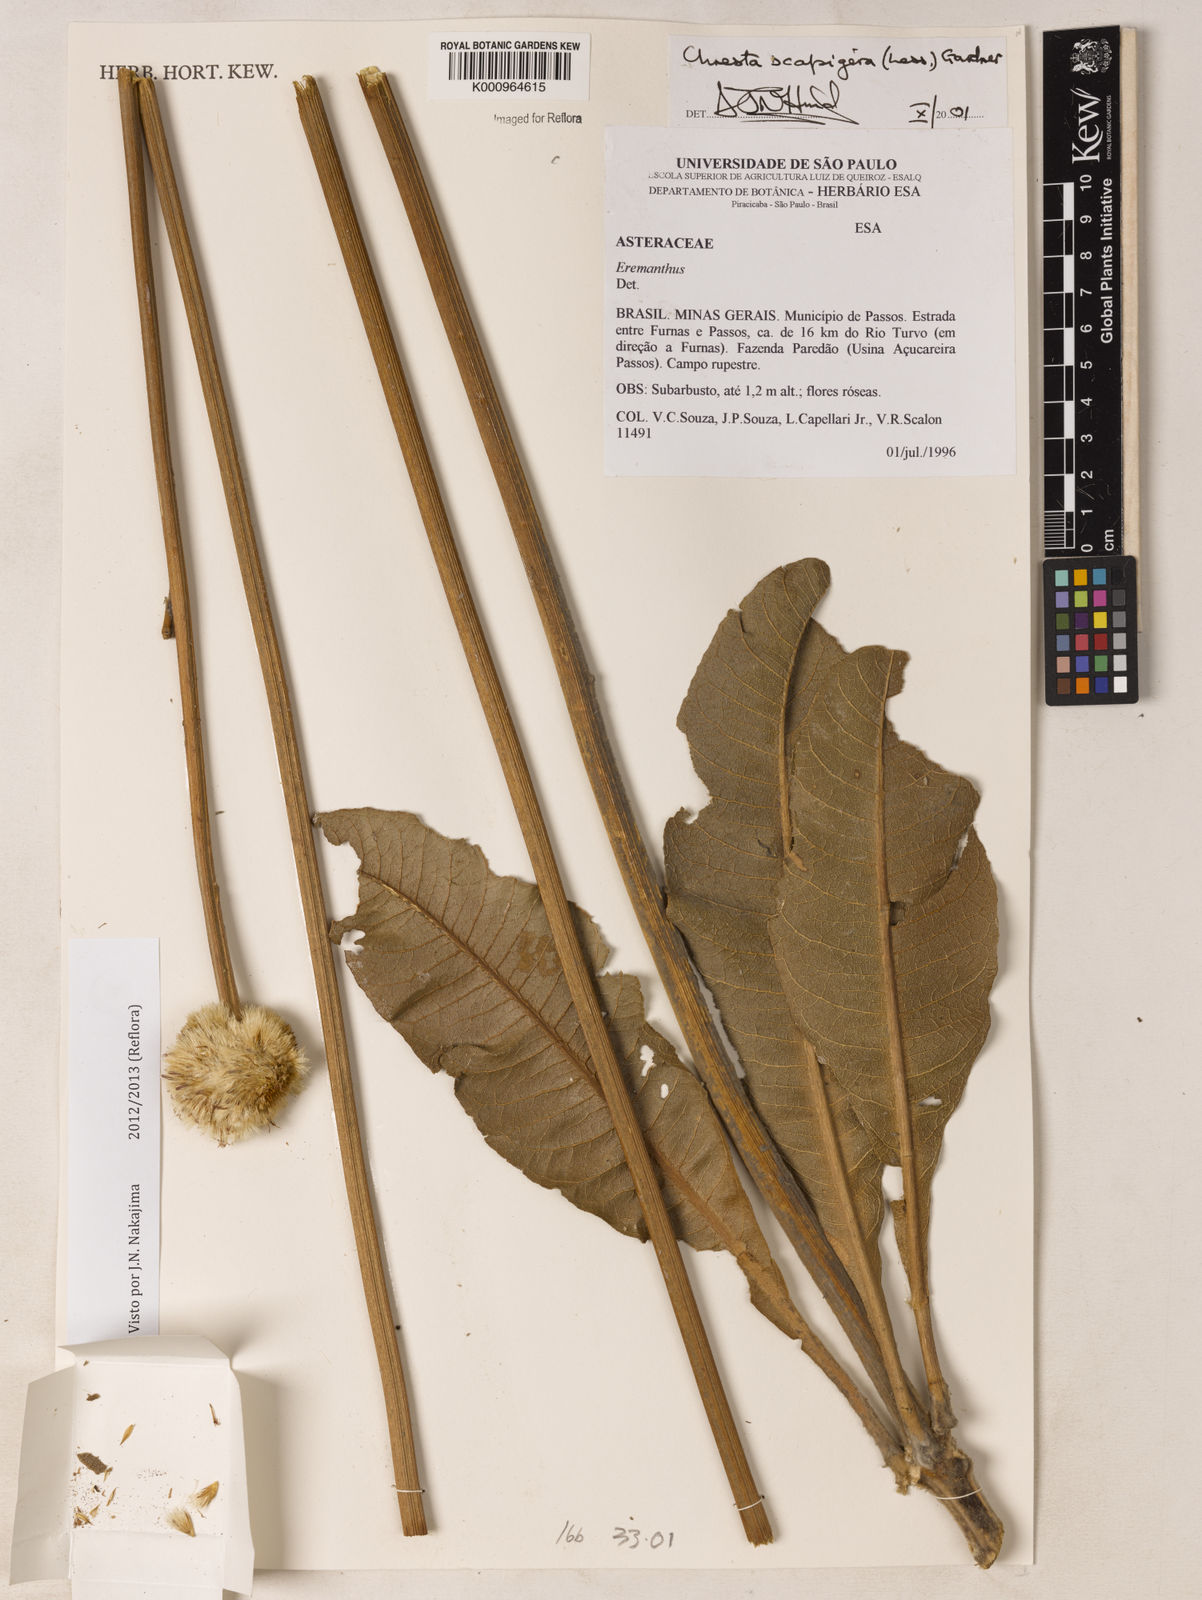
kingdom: Plantae
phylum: Tracheophyta
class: Magnoliopsida
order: Asterales
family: Asteraceae
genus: Chresta
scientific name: Chresta scapigera
